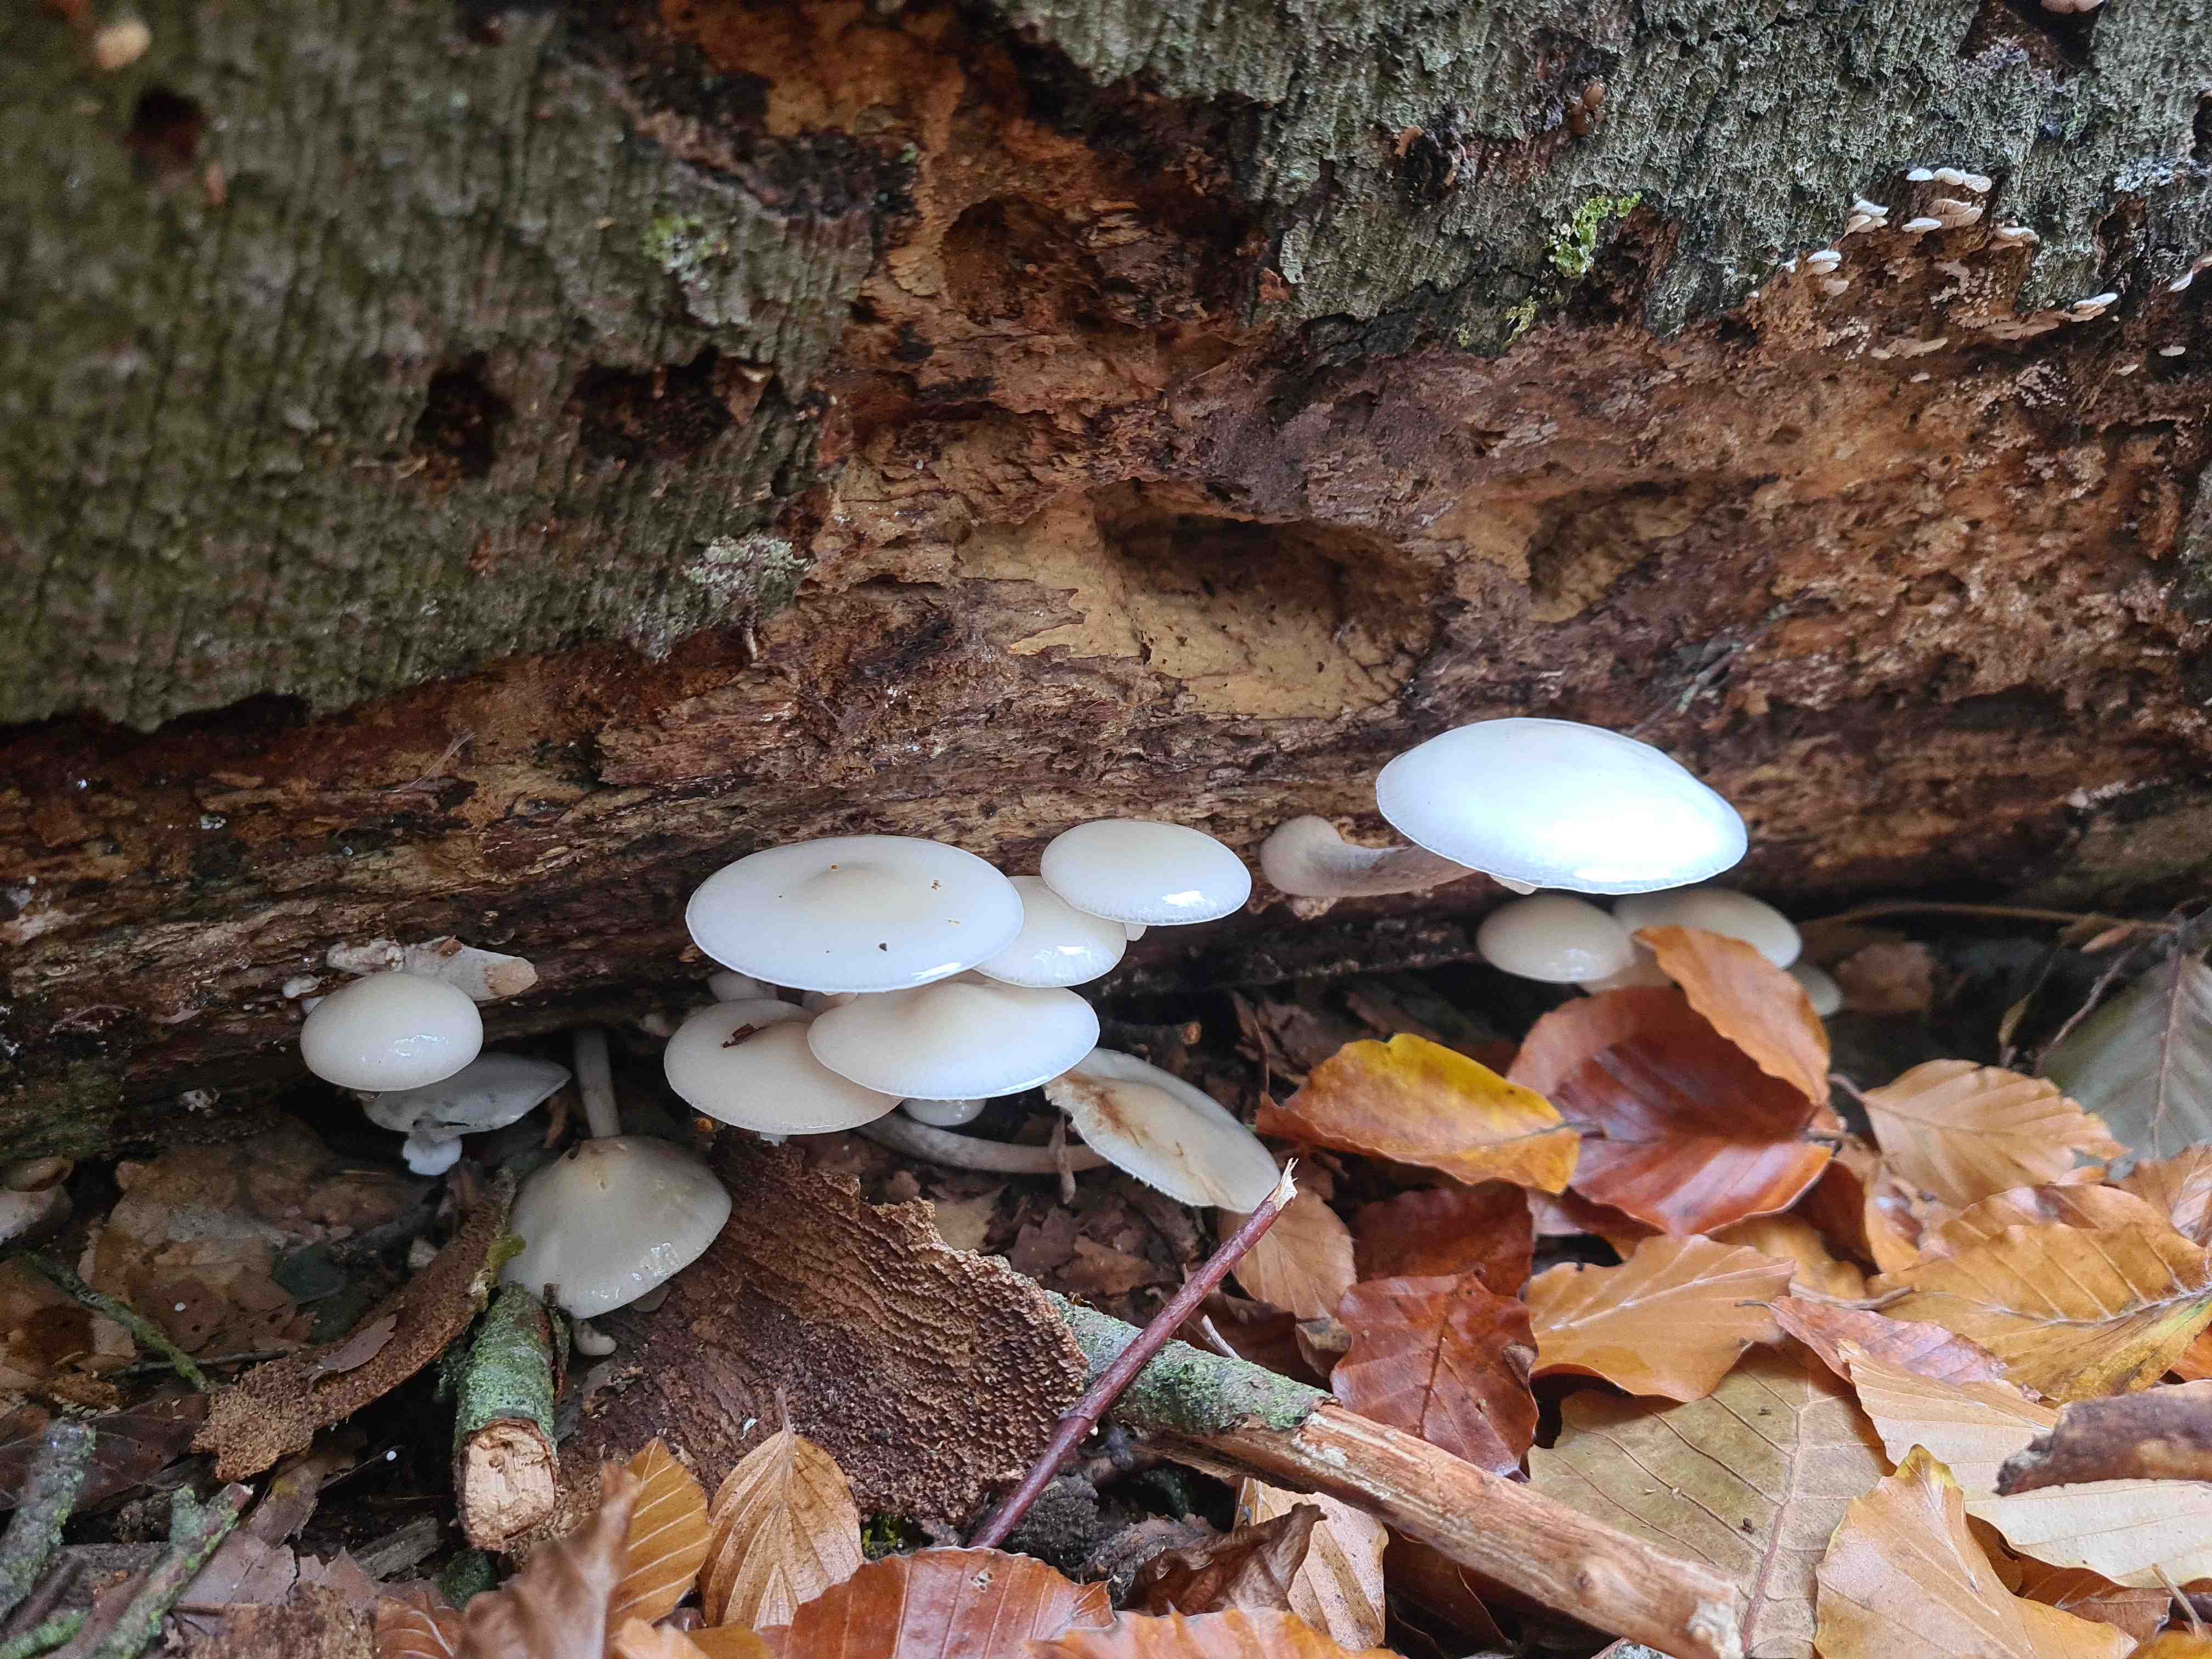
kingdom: Fungi
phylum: Basidiomycota
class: Agaricomycetes
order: Agaricales
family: Physalacriaceae
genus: Mucidula
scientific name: Mucidula mucida
